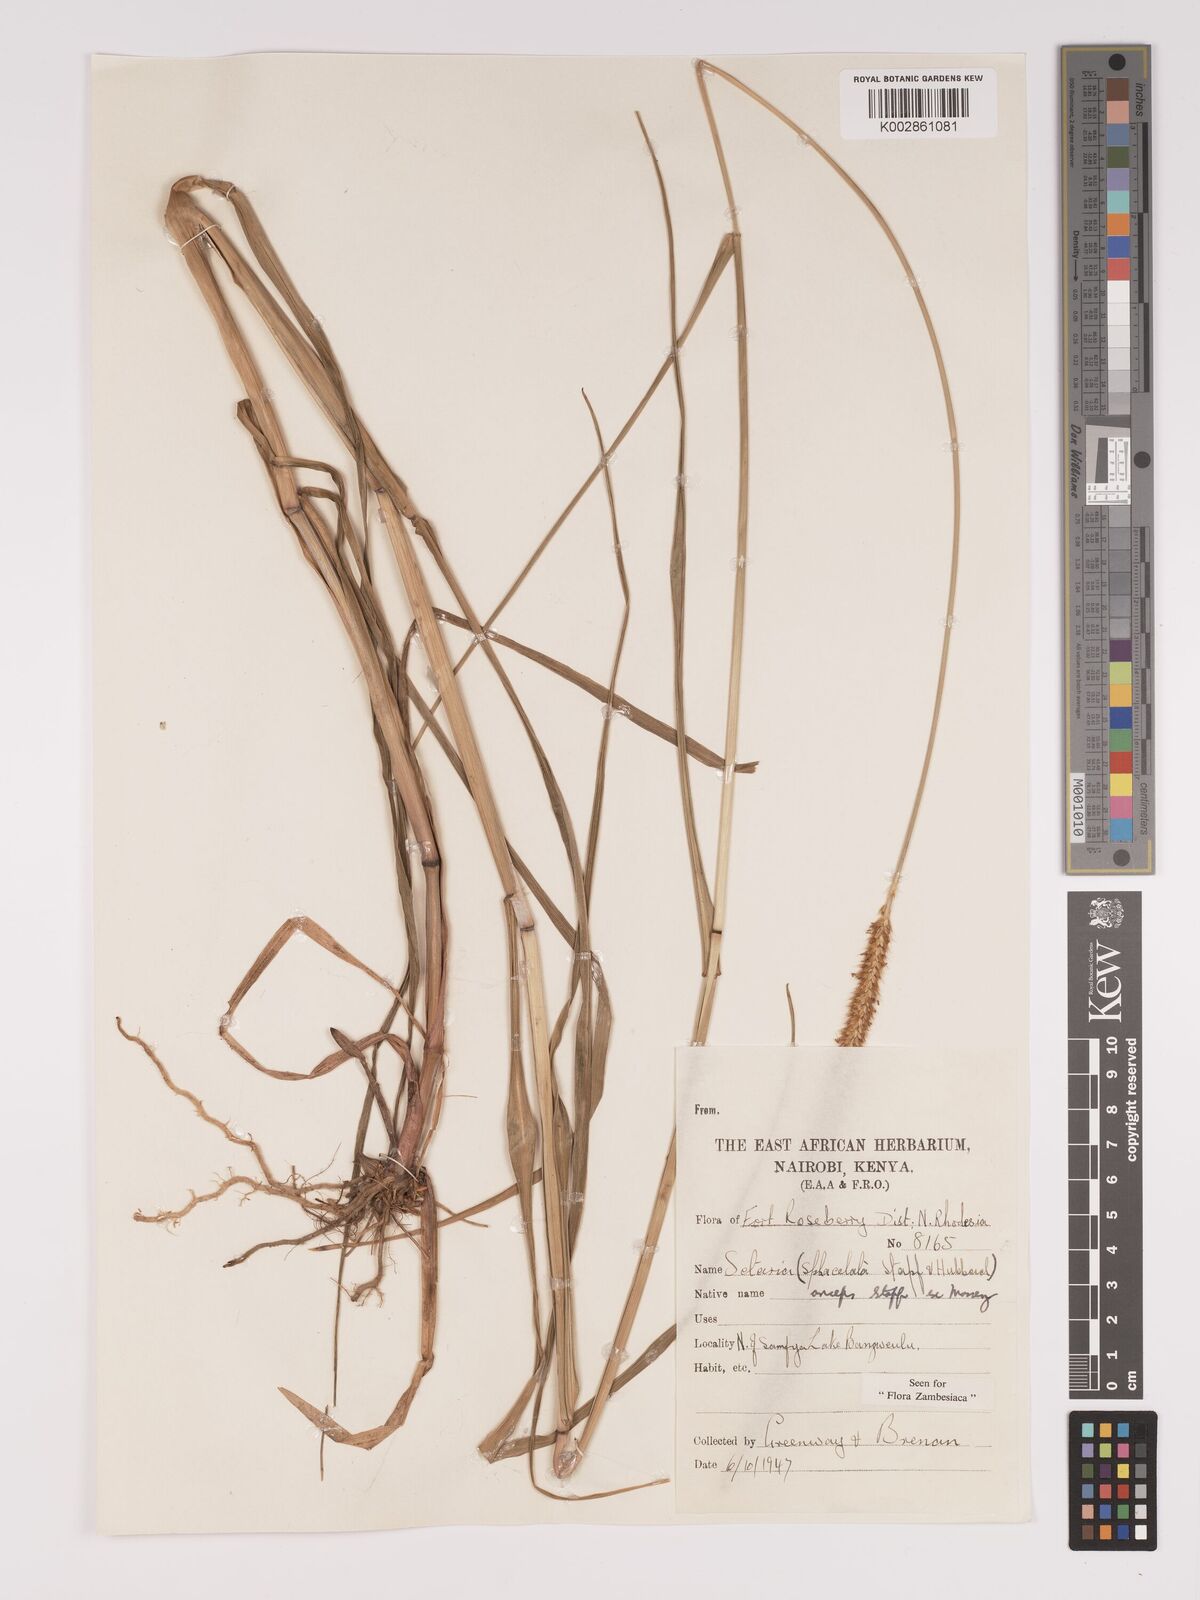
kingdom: Plantae
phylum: Tracheophyta
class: Liliopsida
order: Poales
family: Poaceae
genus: Setaria
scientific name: Setaria sphacelata
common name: African bristlegrass
